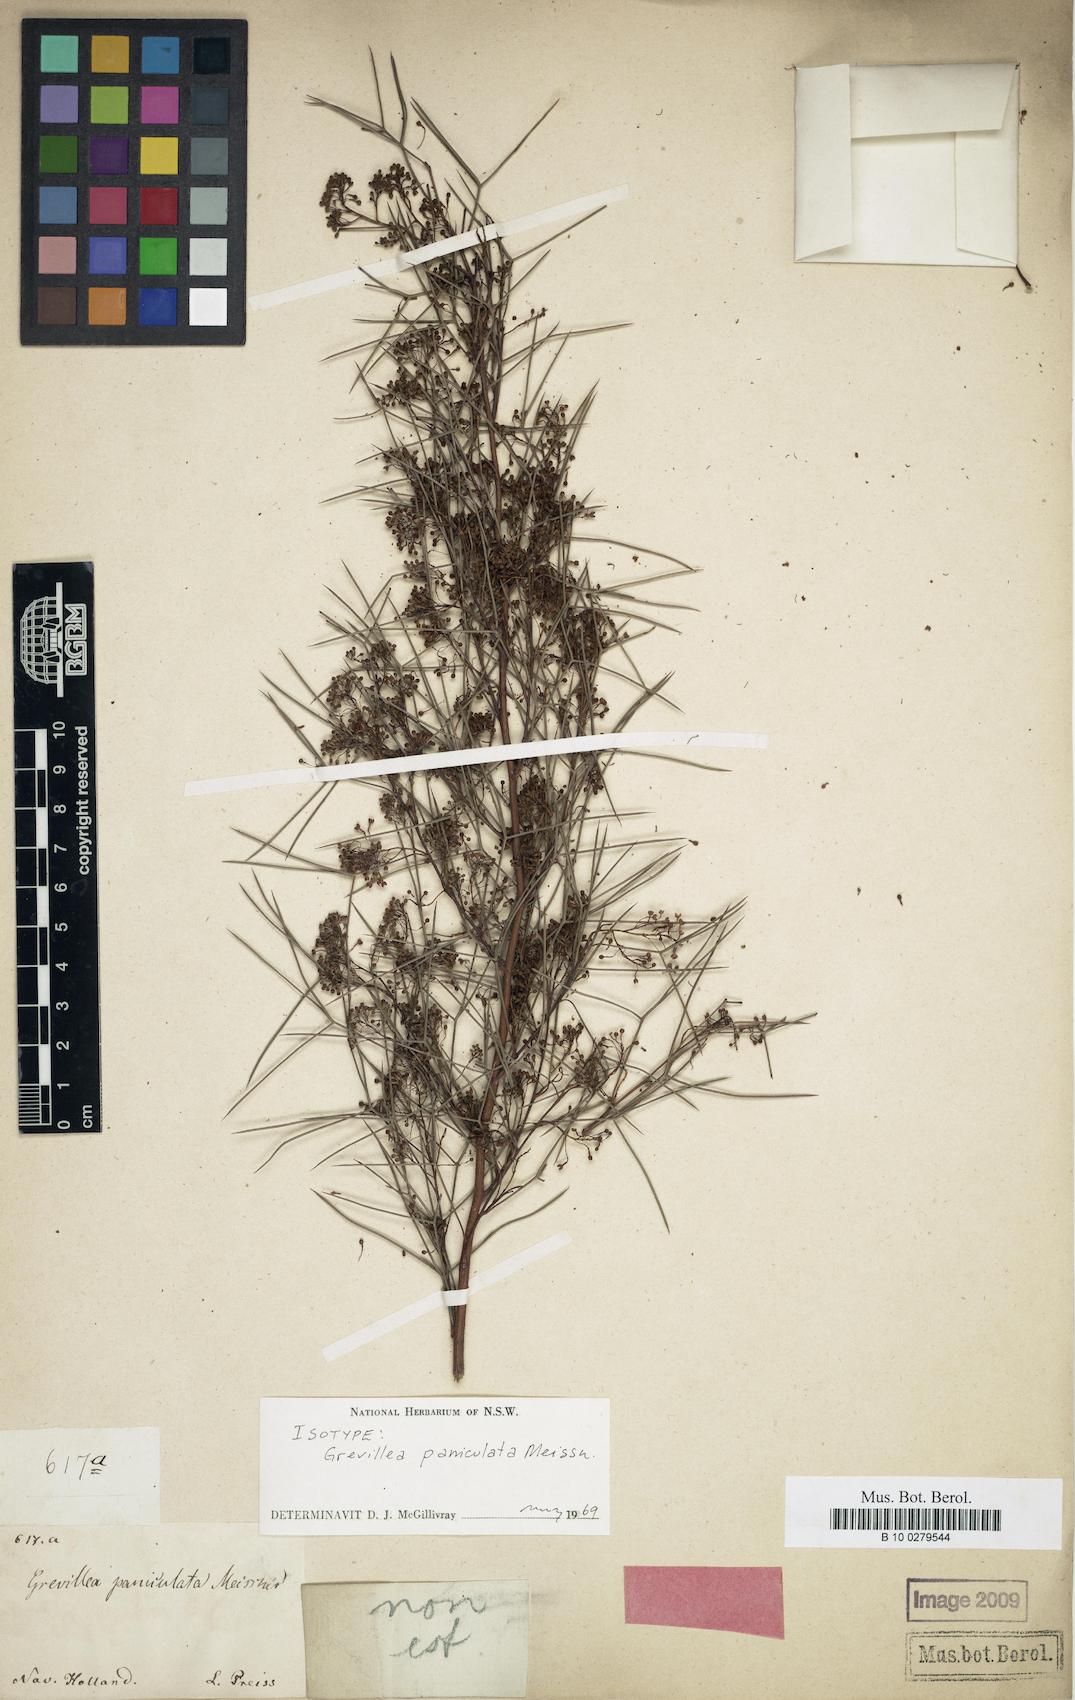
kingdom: Plantae
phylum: Tracheophyta
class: Magnoliopsida
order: Proteales
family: Proteaceae
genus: Grevillea
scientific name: Grevillea paniculata
